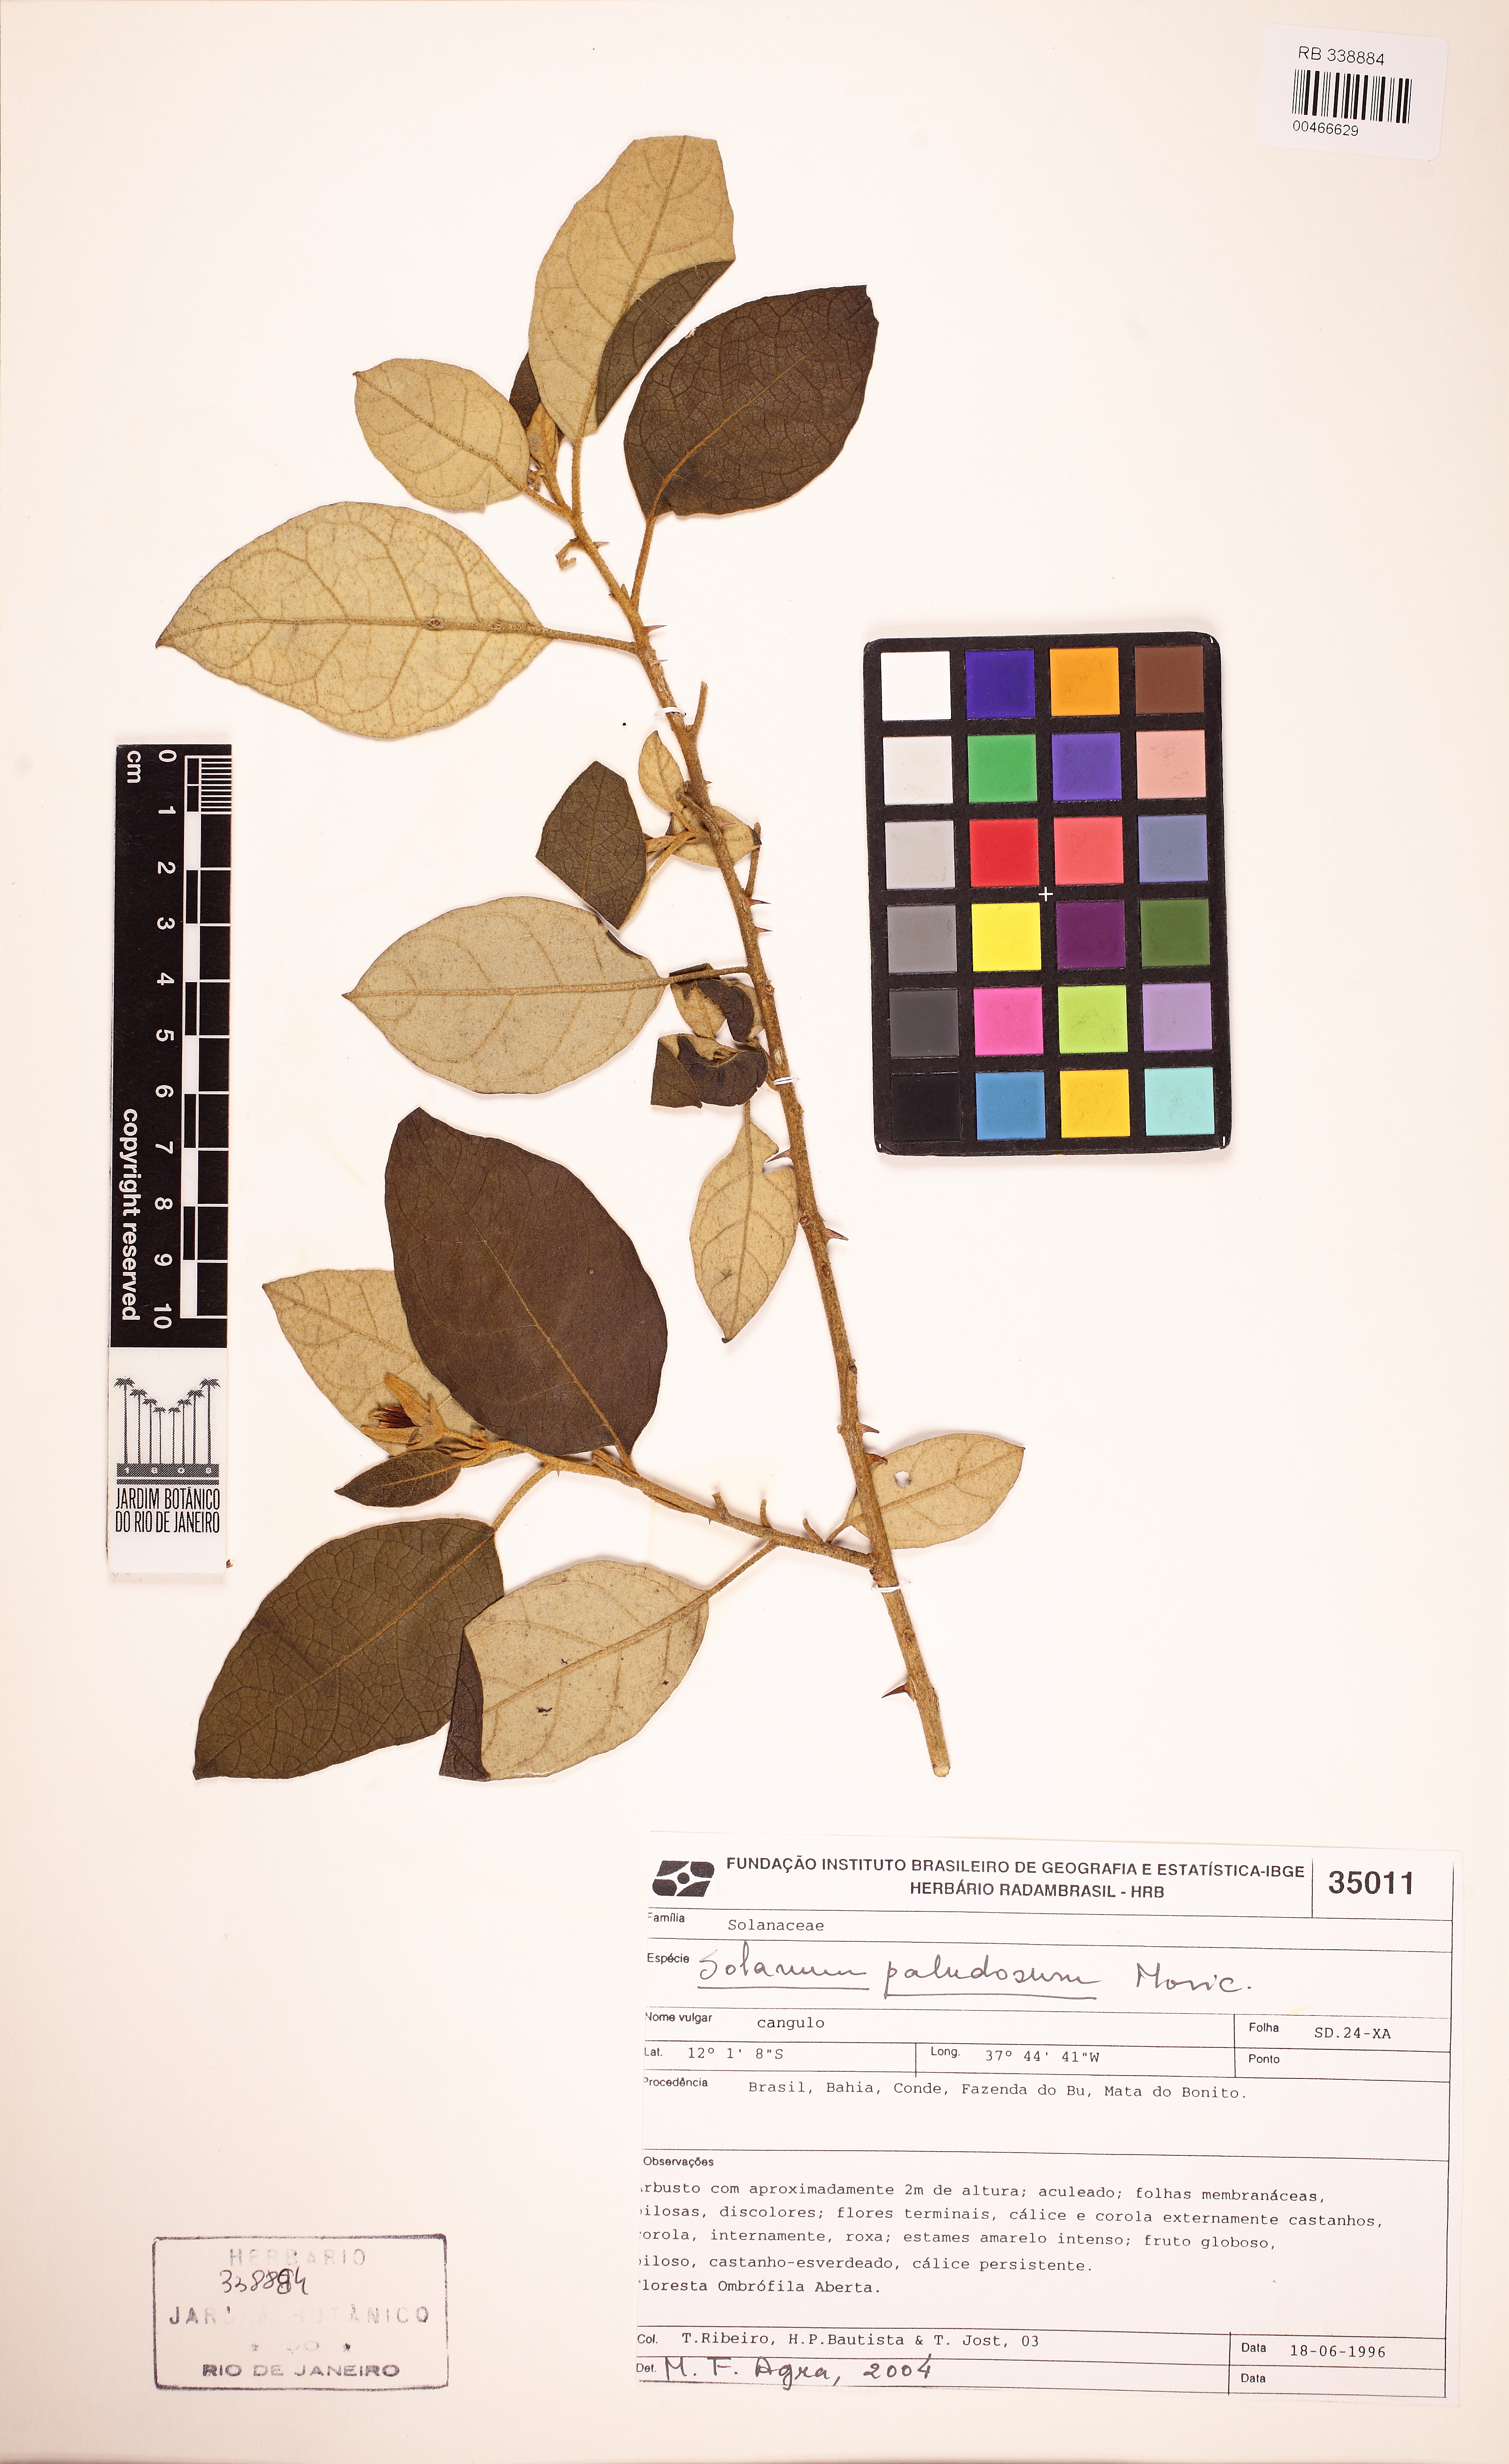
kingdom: Plantae
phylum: Tracheophyta
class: Magnoliopsida
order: Solanales
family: Solanaceae
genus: Solanum
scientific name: Solanum paludosum
